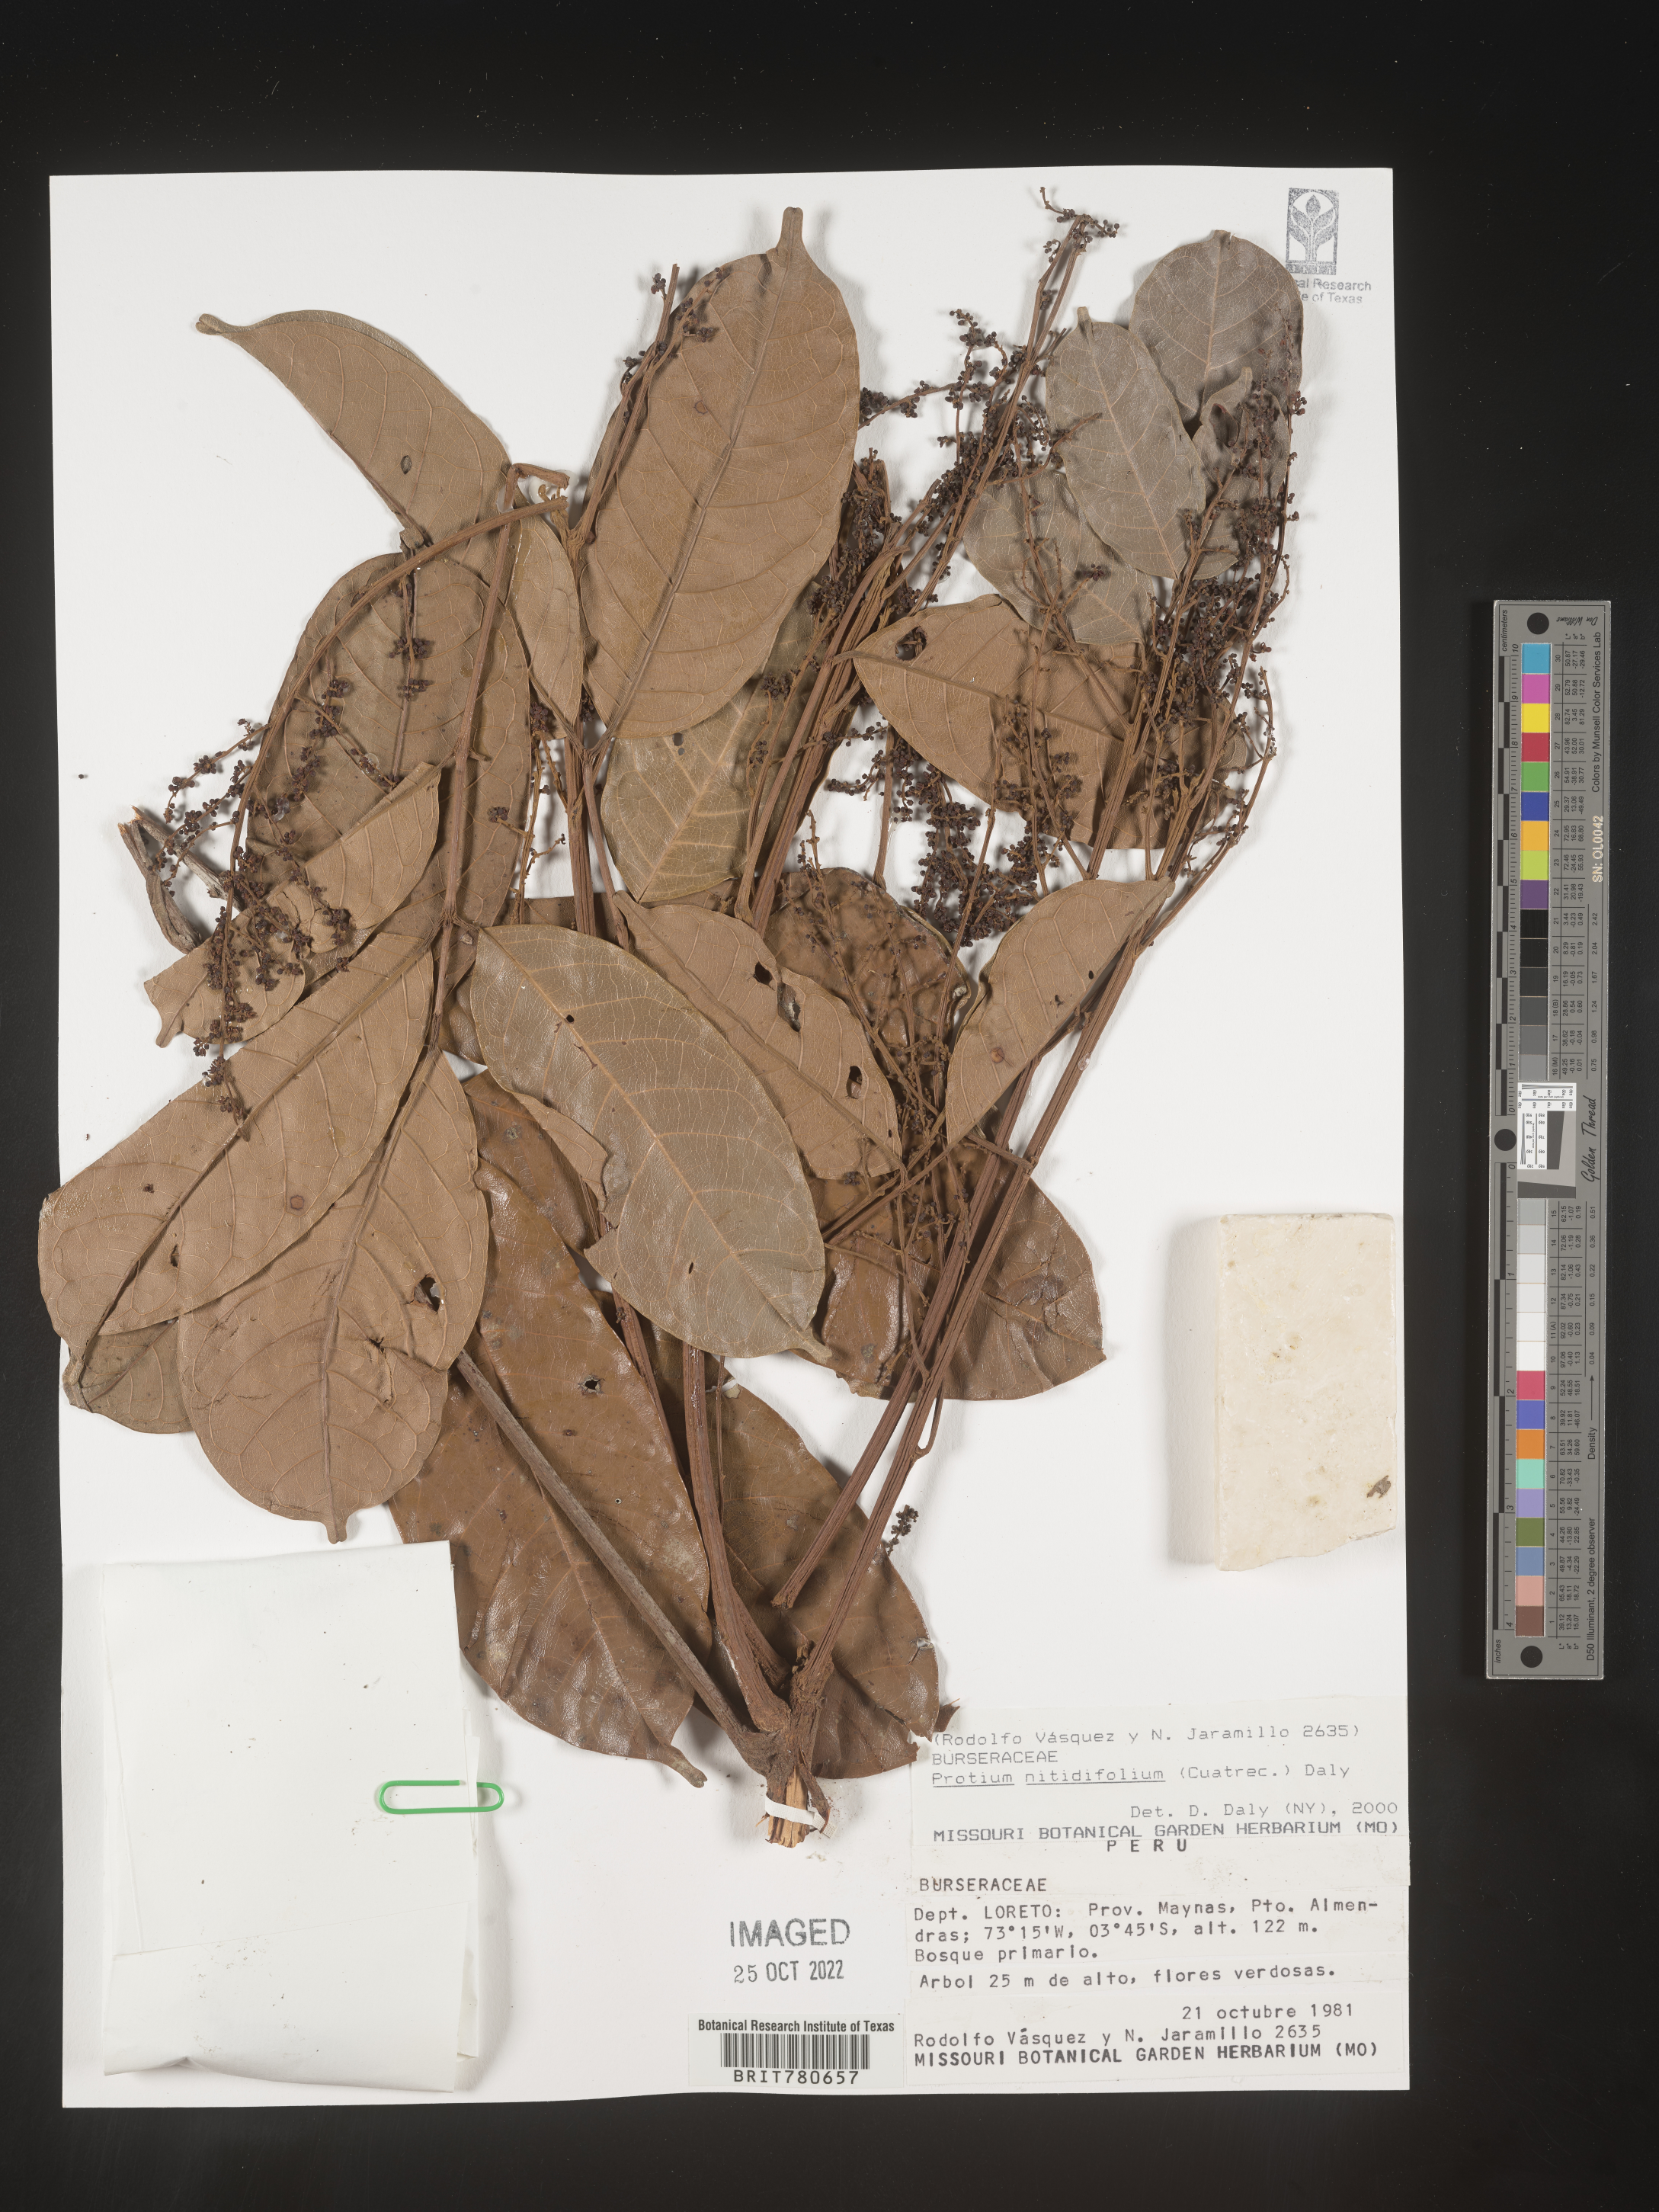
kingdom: Plantae
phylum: Tracheophyta
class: Magnoliopsida
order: Sapindales
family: Burseraceae
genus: Protium
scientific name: Protium
